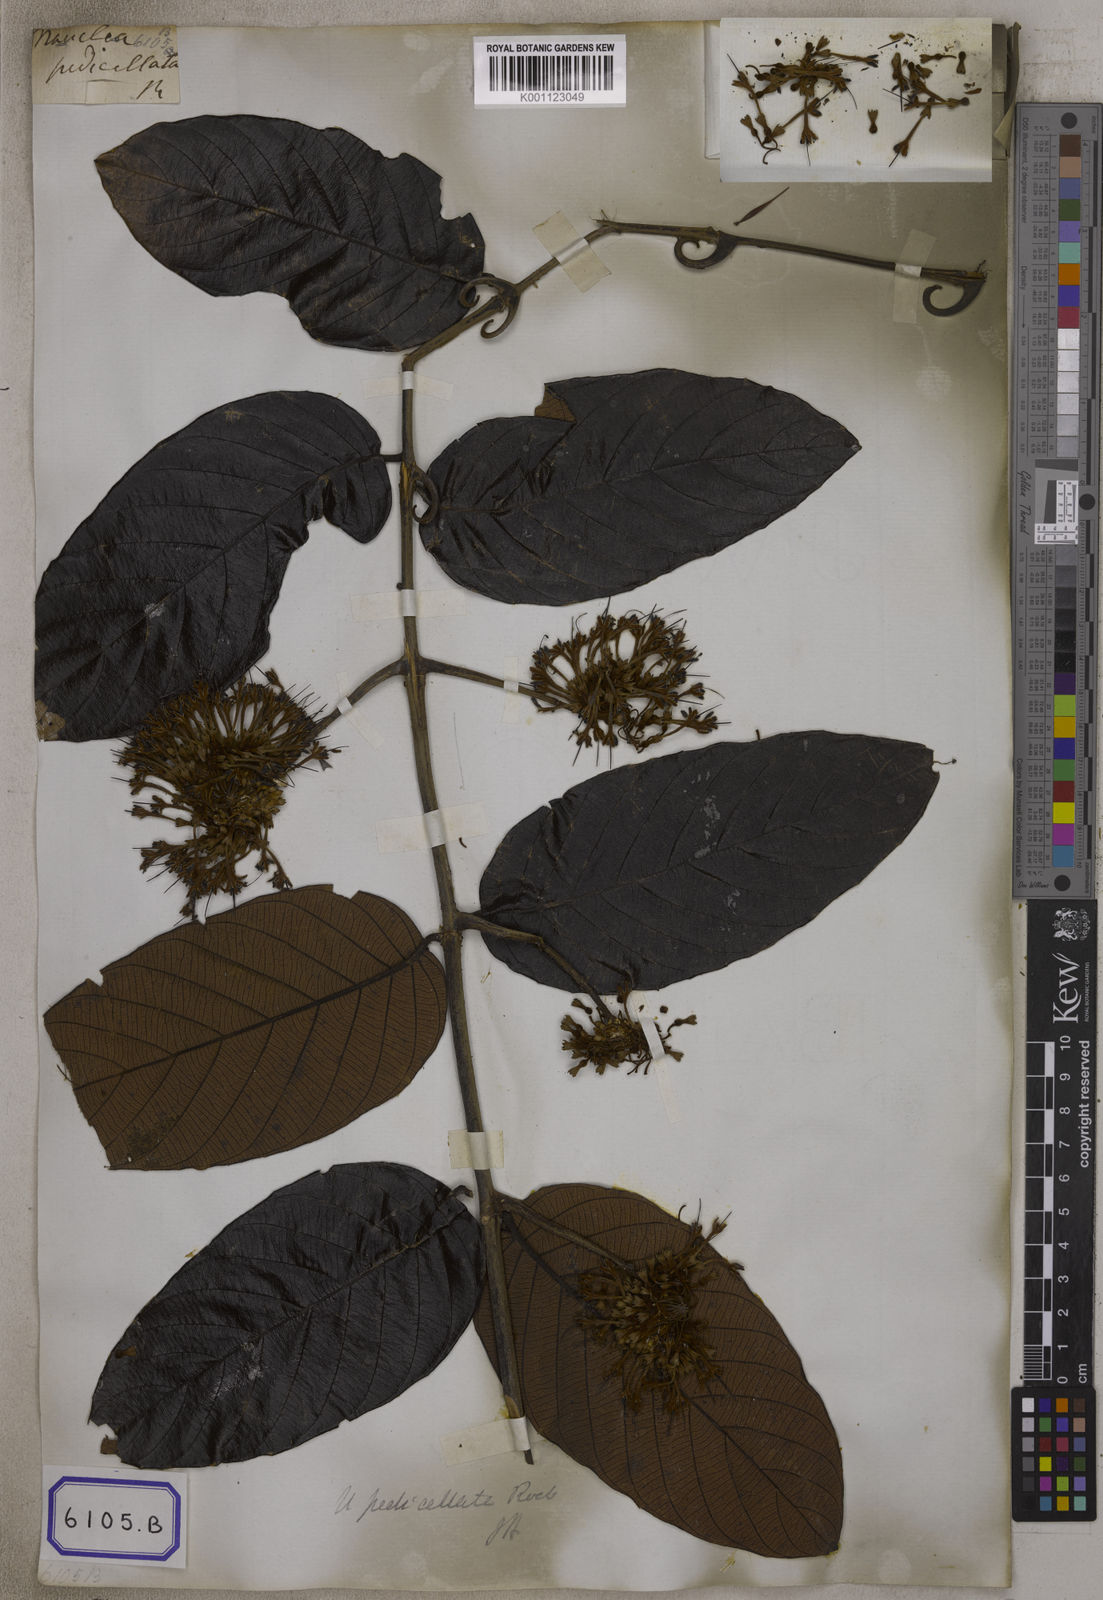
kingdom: Plantae
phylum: Tracheophyta
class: Magnoliopsida
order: Gentianales
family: Rubiaceae
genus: Uncaria
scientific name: Uncaria
